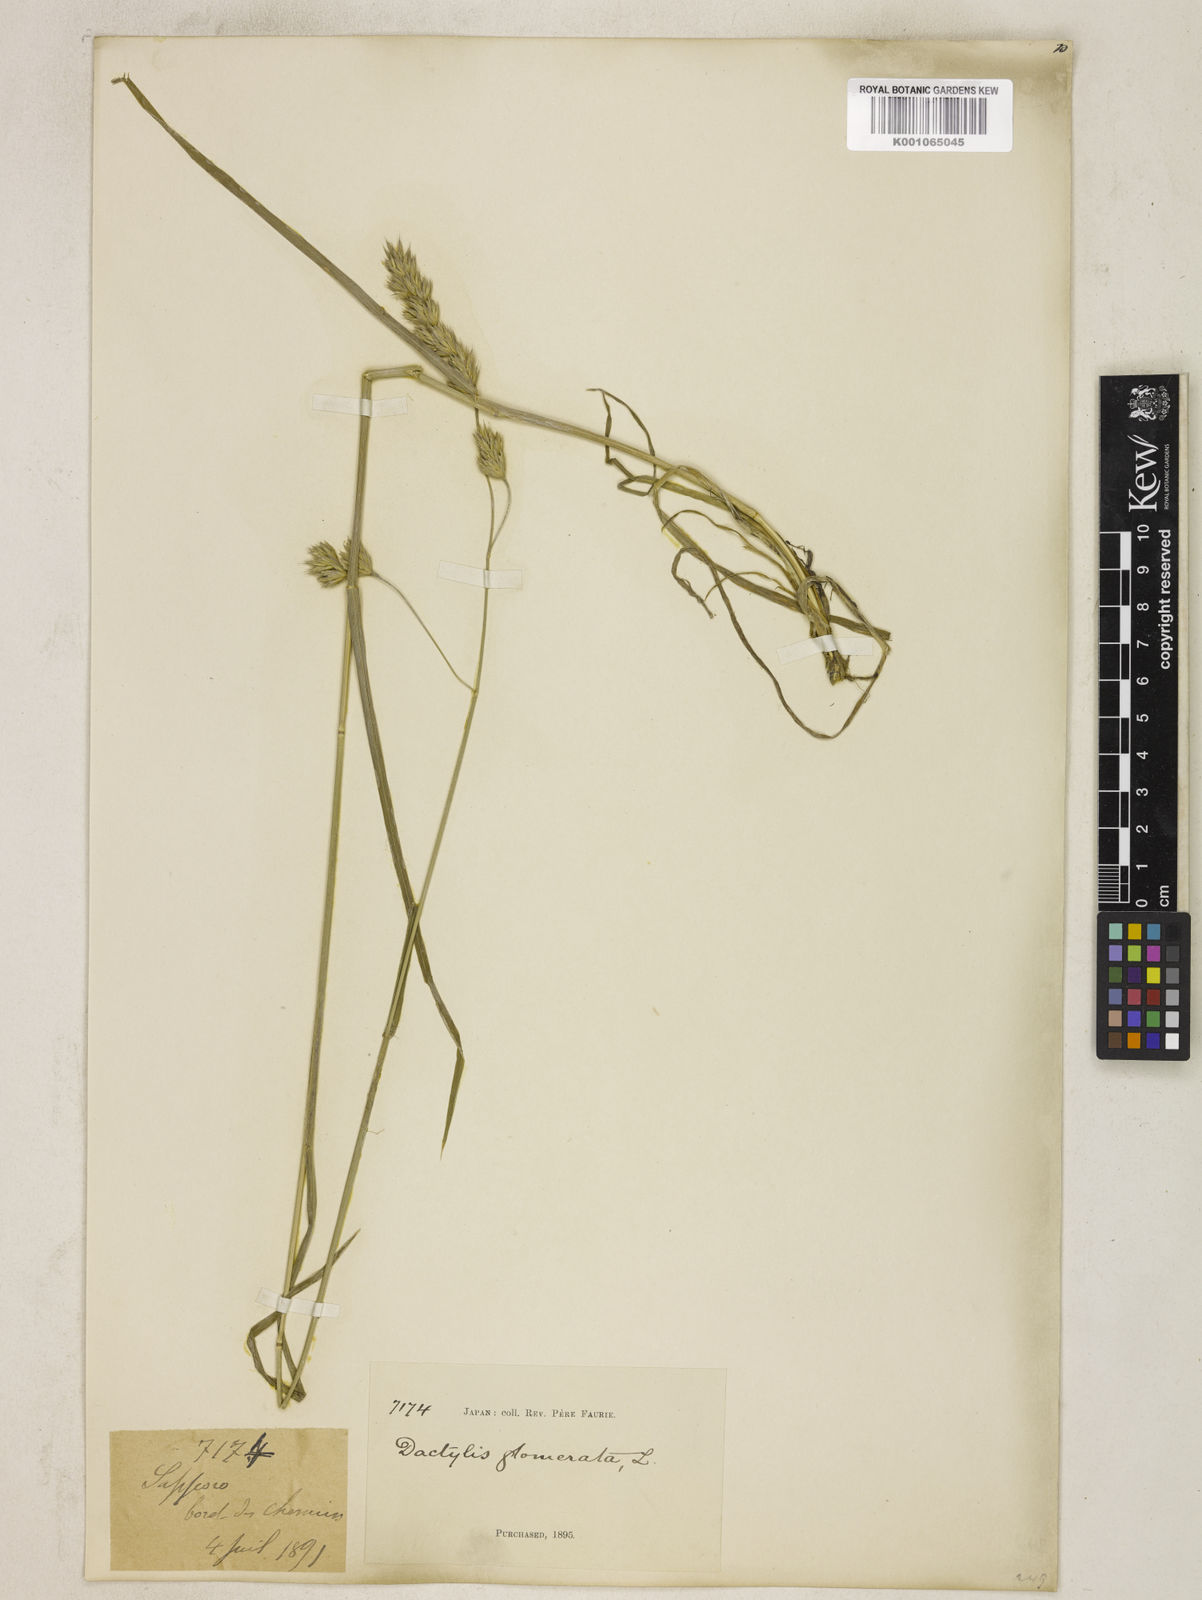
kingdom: Plantae
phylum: Tracheophyta
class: Liliopsida
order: Poales
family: Poaceae
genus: Dactylis
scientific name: Dactylis glomerata
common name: Orchardgrass
